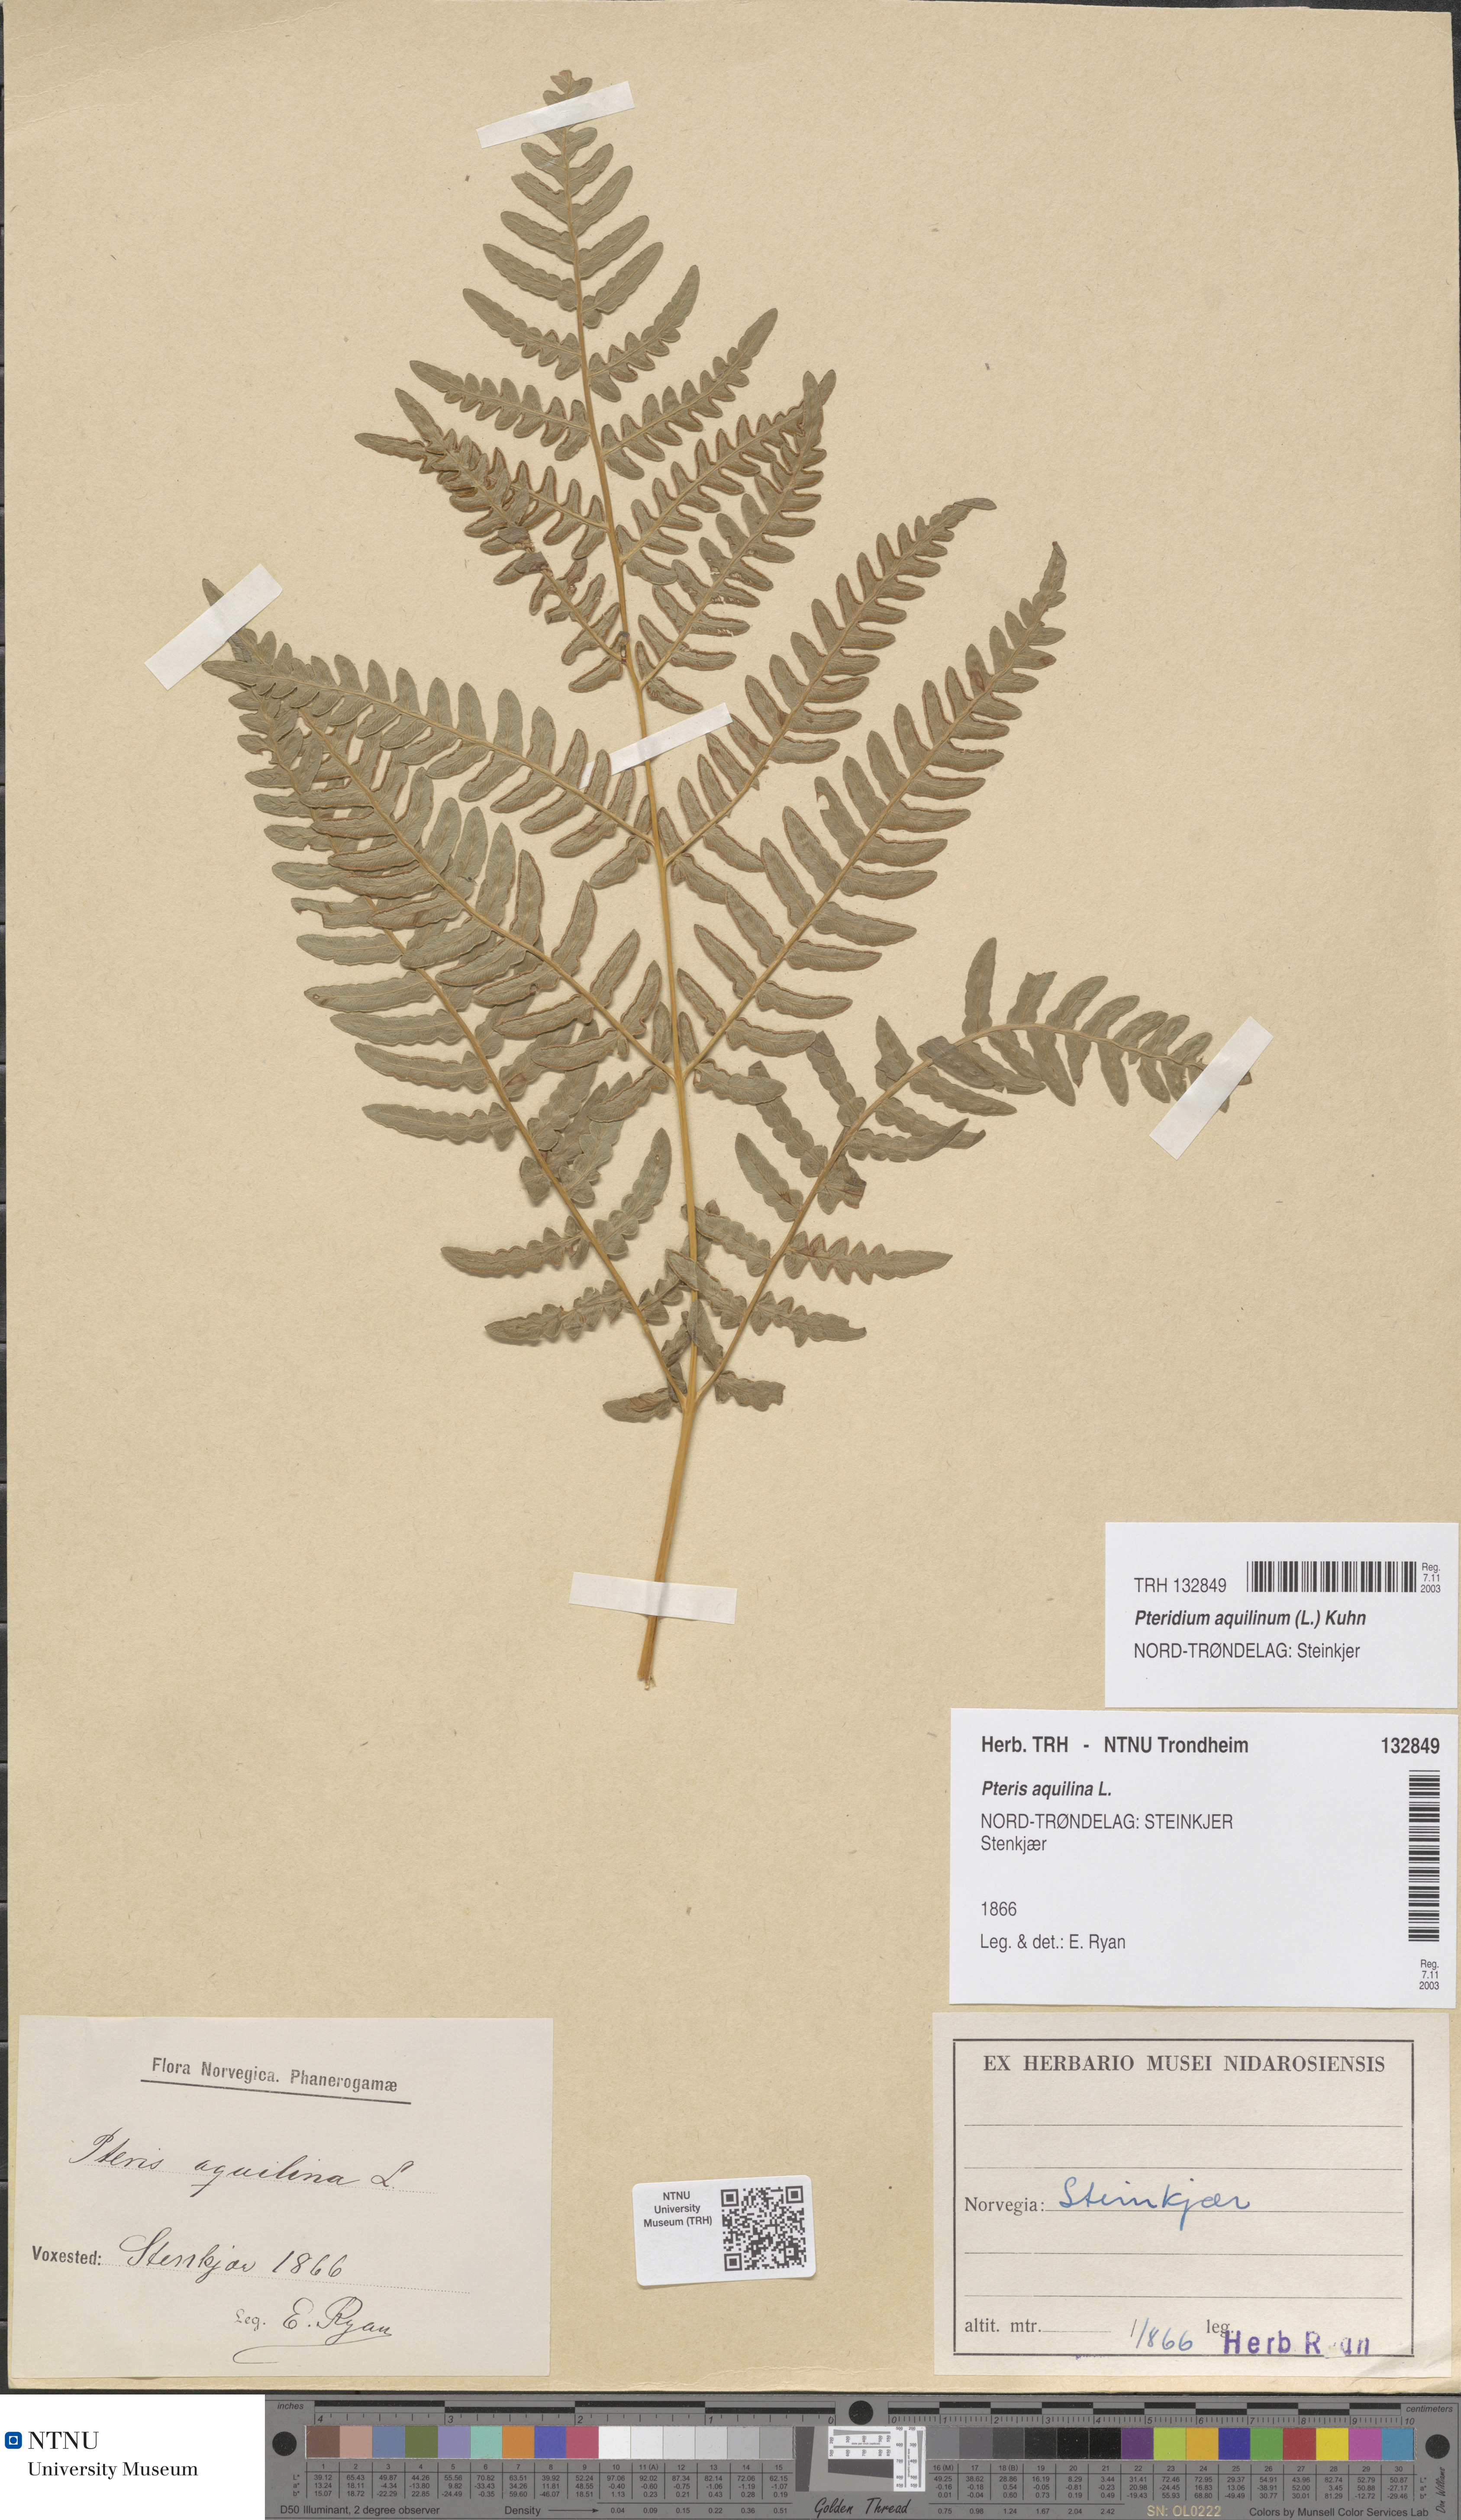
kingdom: Plantae
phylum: Tracheophyta
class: Polypodiopsida
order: Polypodiales
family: Dennstaedtiaceae
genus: Pteridium
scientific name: Pteridium aquilinum
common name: Bracken
